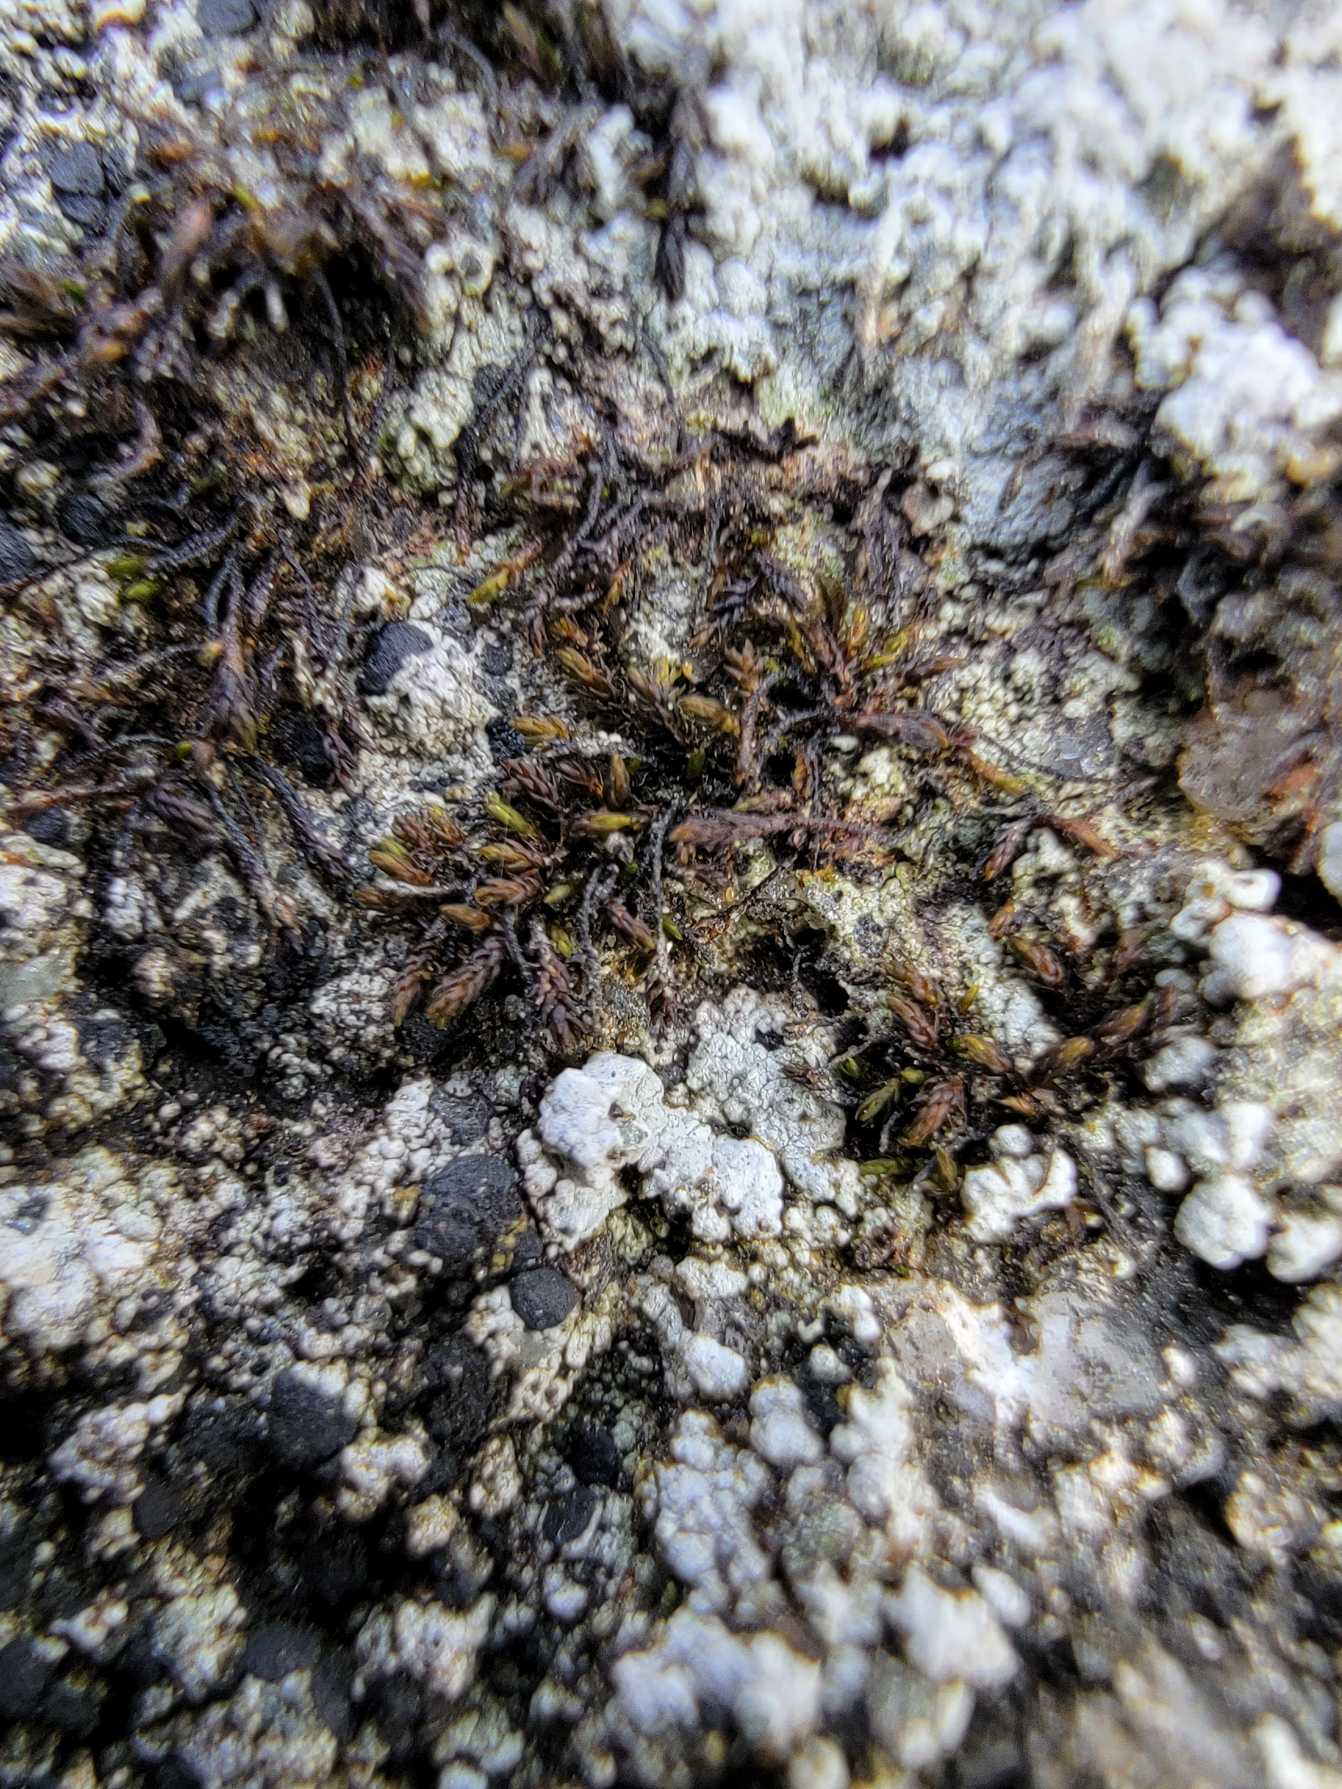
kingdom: Plantae
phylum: Bryophyta
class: Andreaeopsida
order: Andreaeales
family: Andreaeaceae
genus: Andreaea
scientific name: Andreaea rupestris
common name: Lille sortmos
